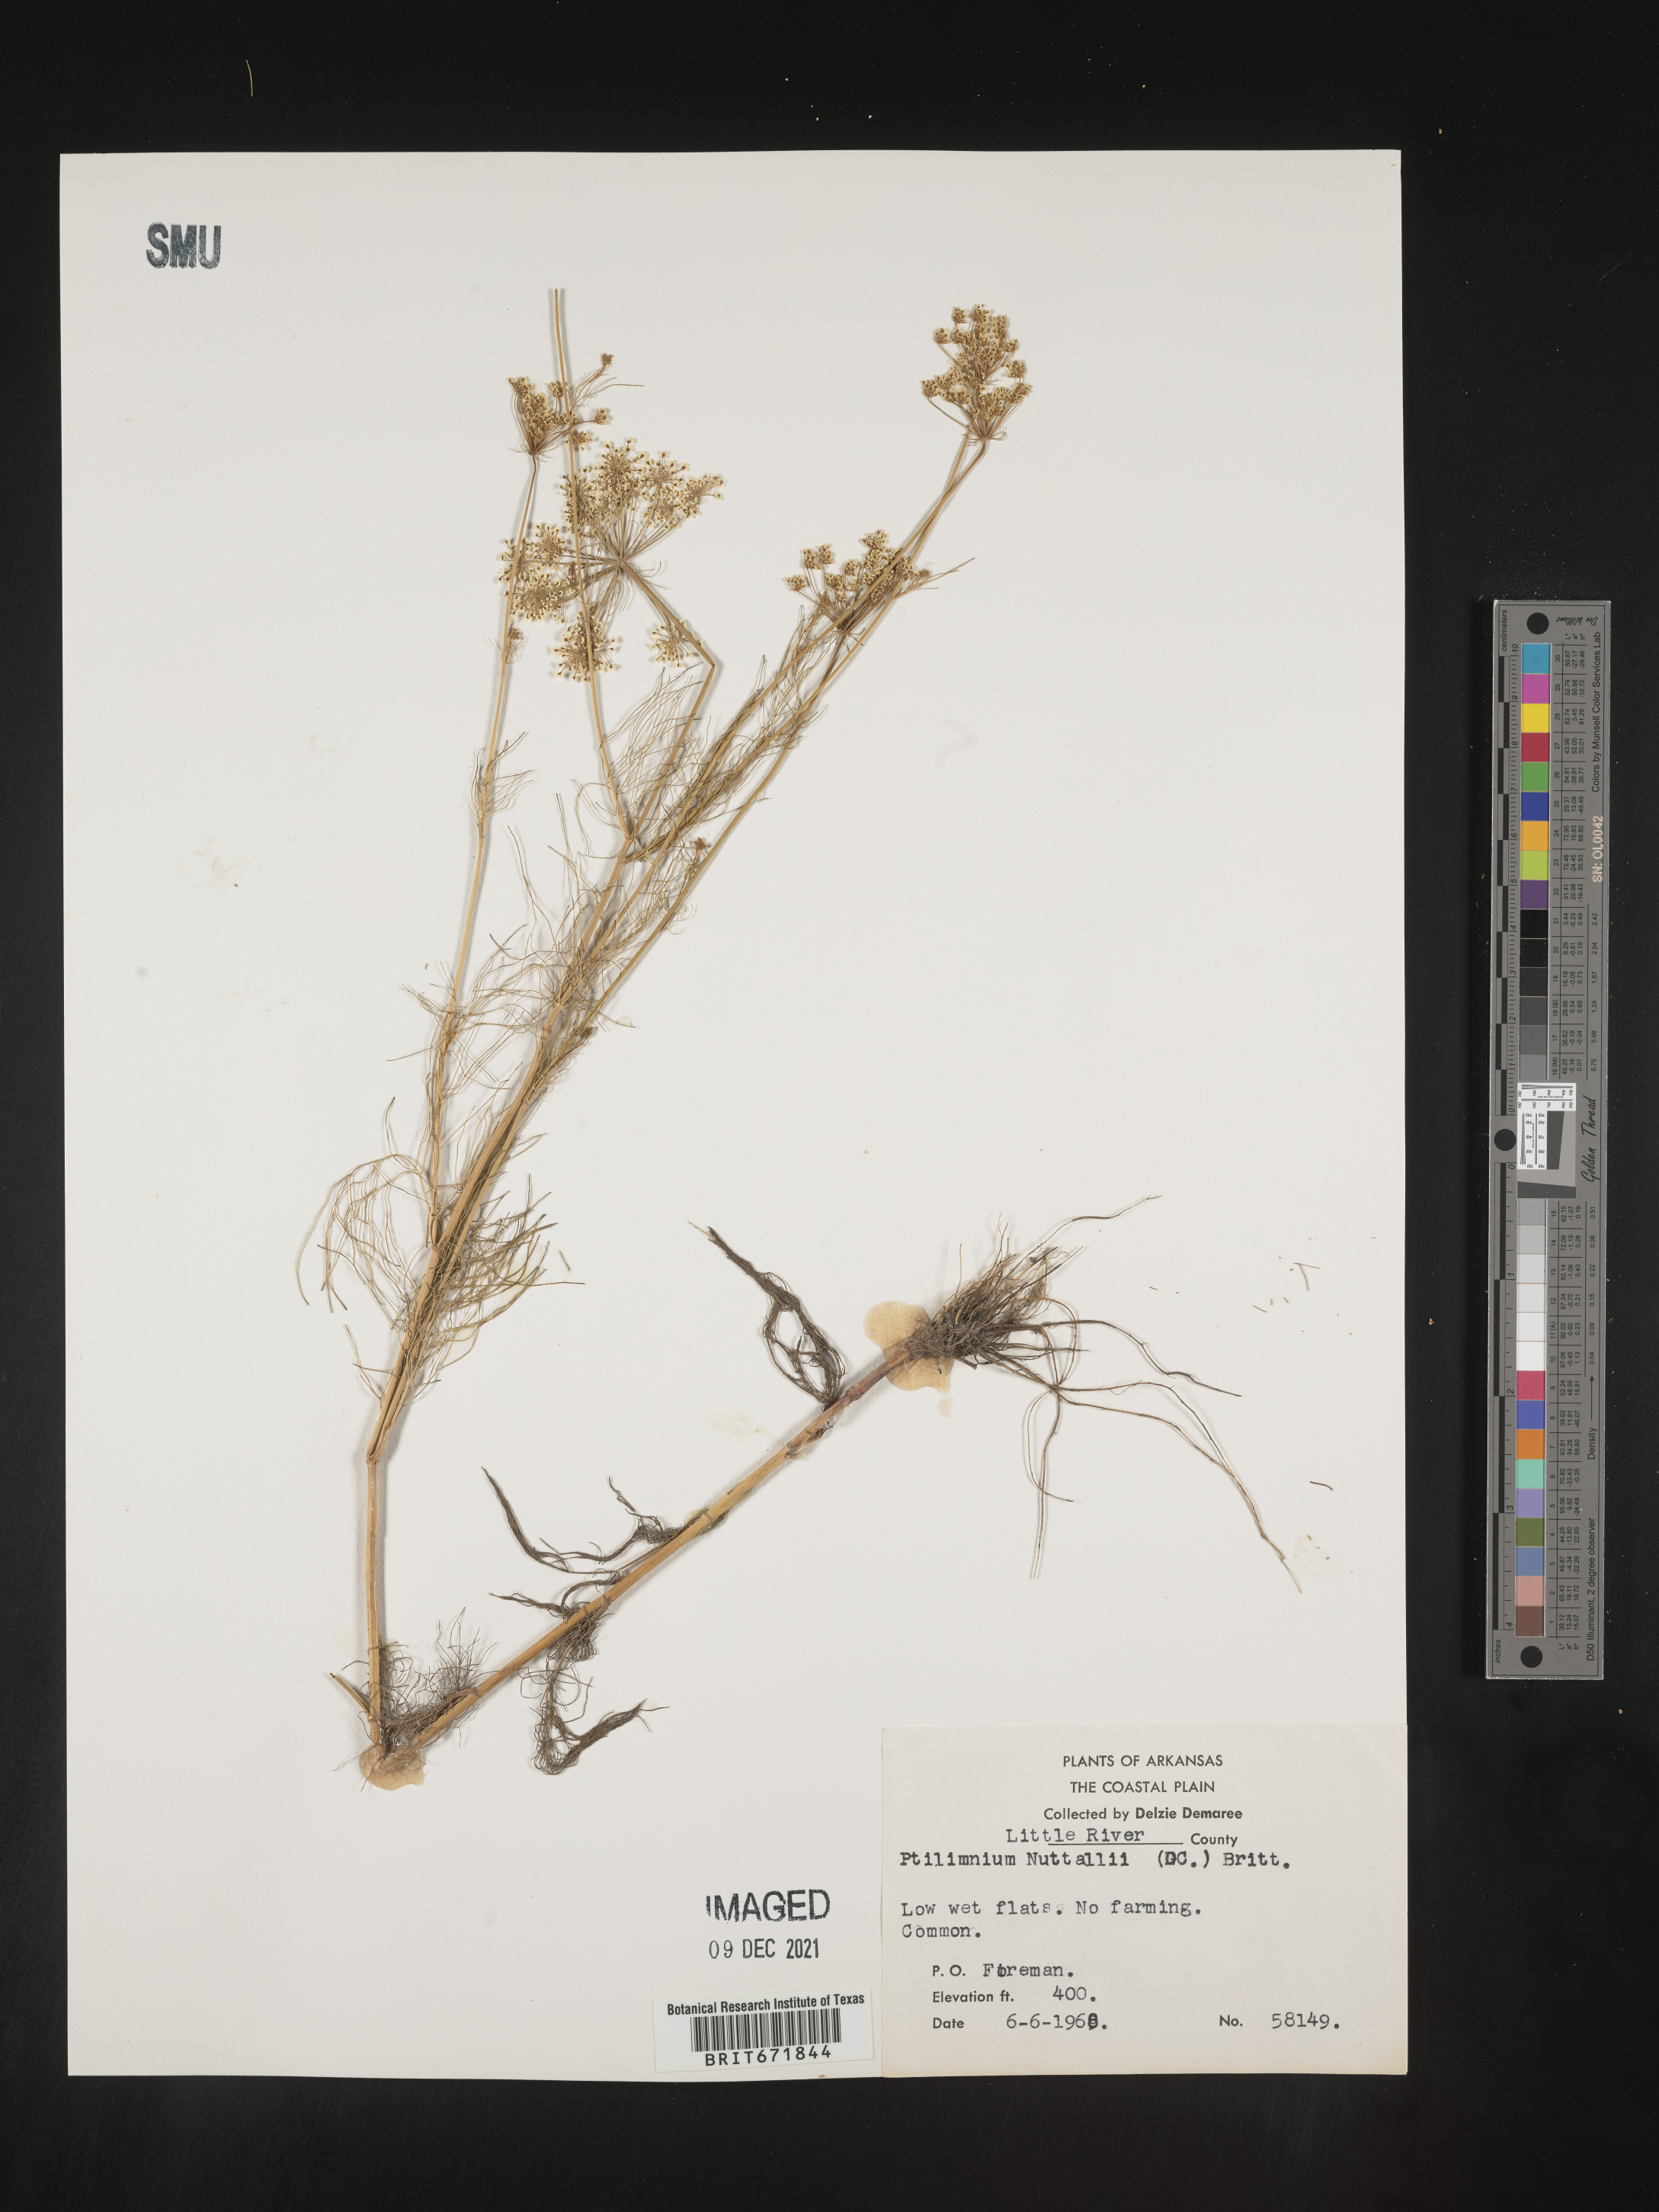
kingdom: Plantae
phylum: Tracheophyta
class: Magnoliopsida
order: Apiales
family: Apiaceae
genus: Ptilimnium
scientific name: Ptilimnium nuttallii
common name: Ozark bishop's-weed
